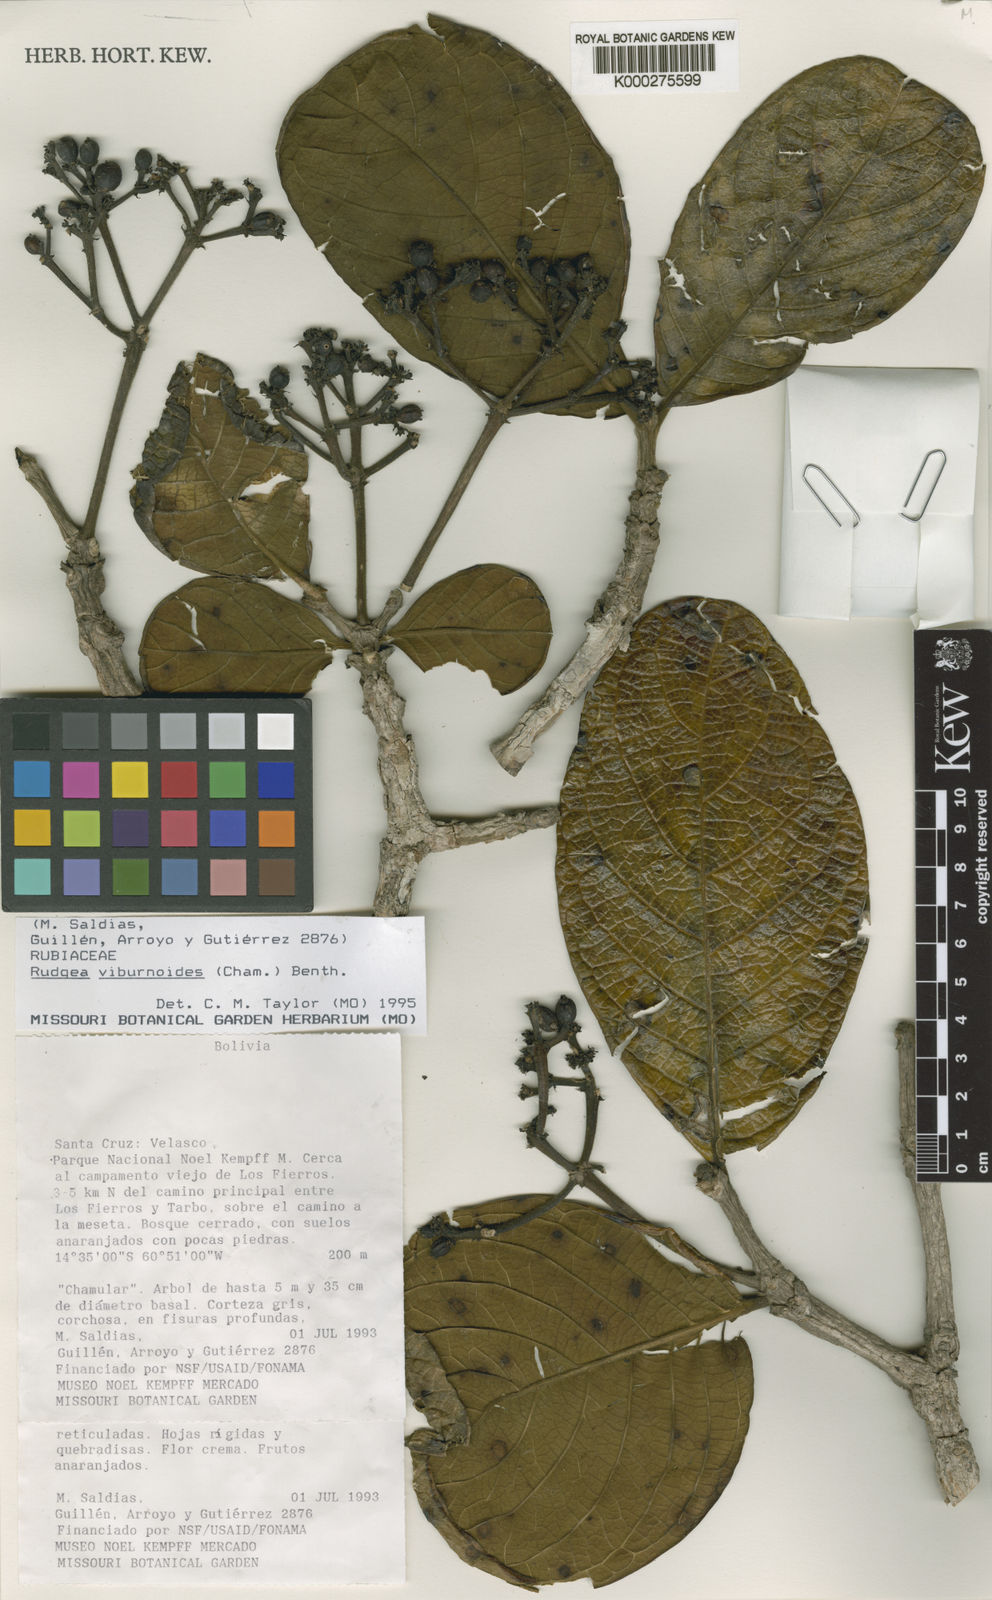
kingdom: Plantae
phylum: Tracheophyta
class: Magnoliopsida
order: Gentianales
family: Rubiaceae
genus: Rudgea
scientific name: Rudgea viburnoides
